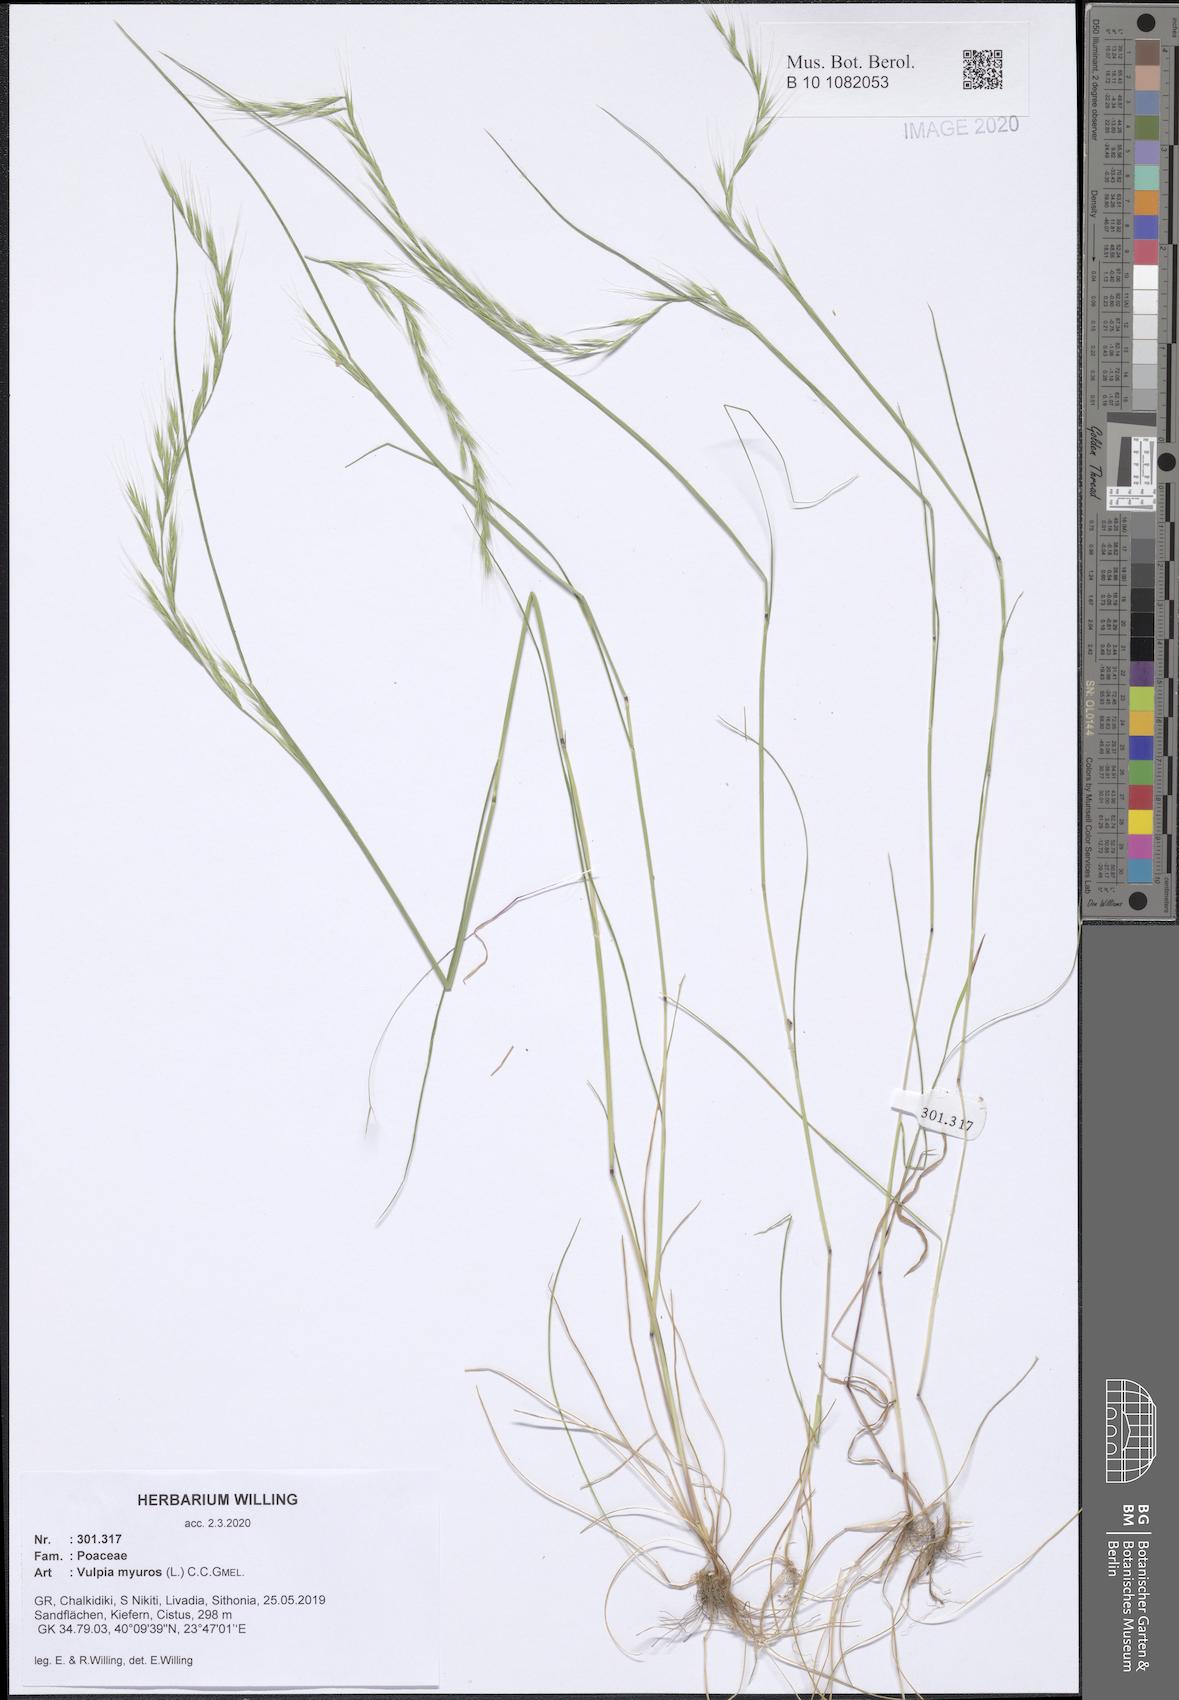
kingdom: Plantae
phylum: Tracheophyta
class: Liliopsida
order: Poales
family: Poaceae
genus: Festuca
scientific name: Festuca myuros
